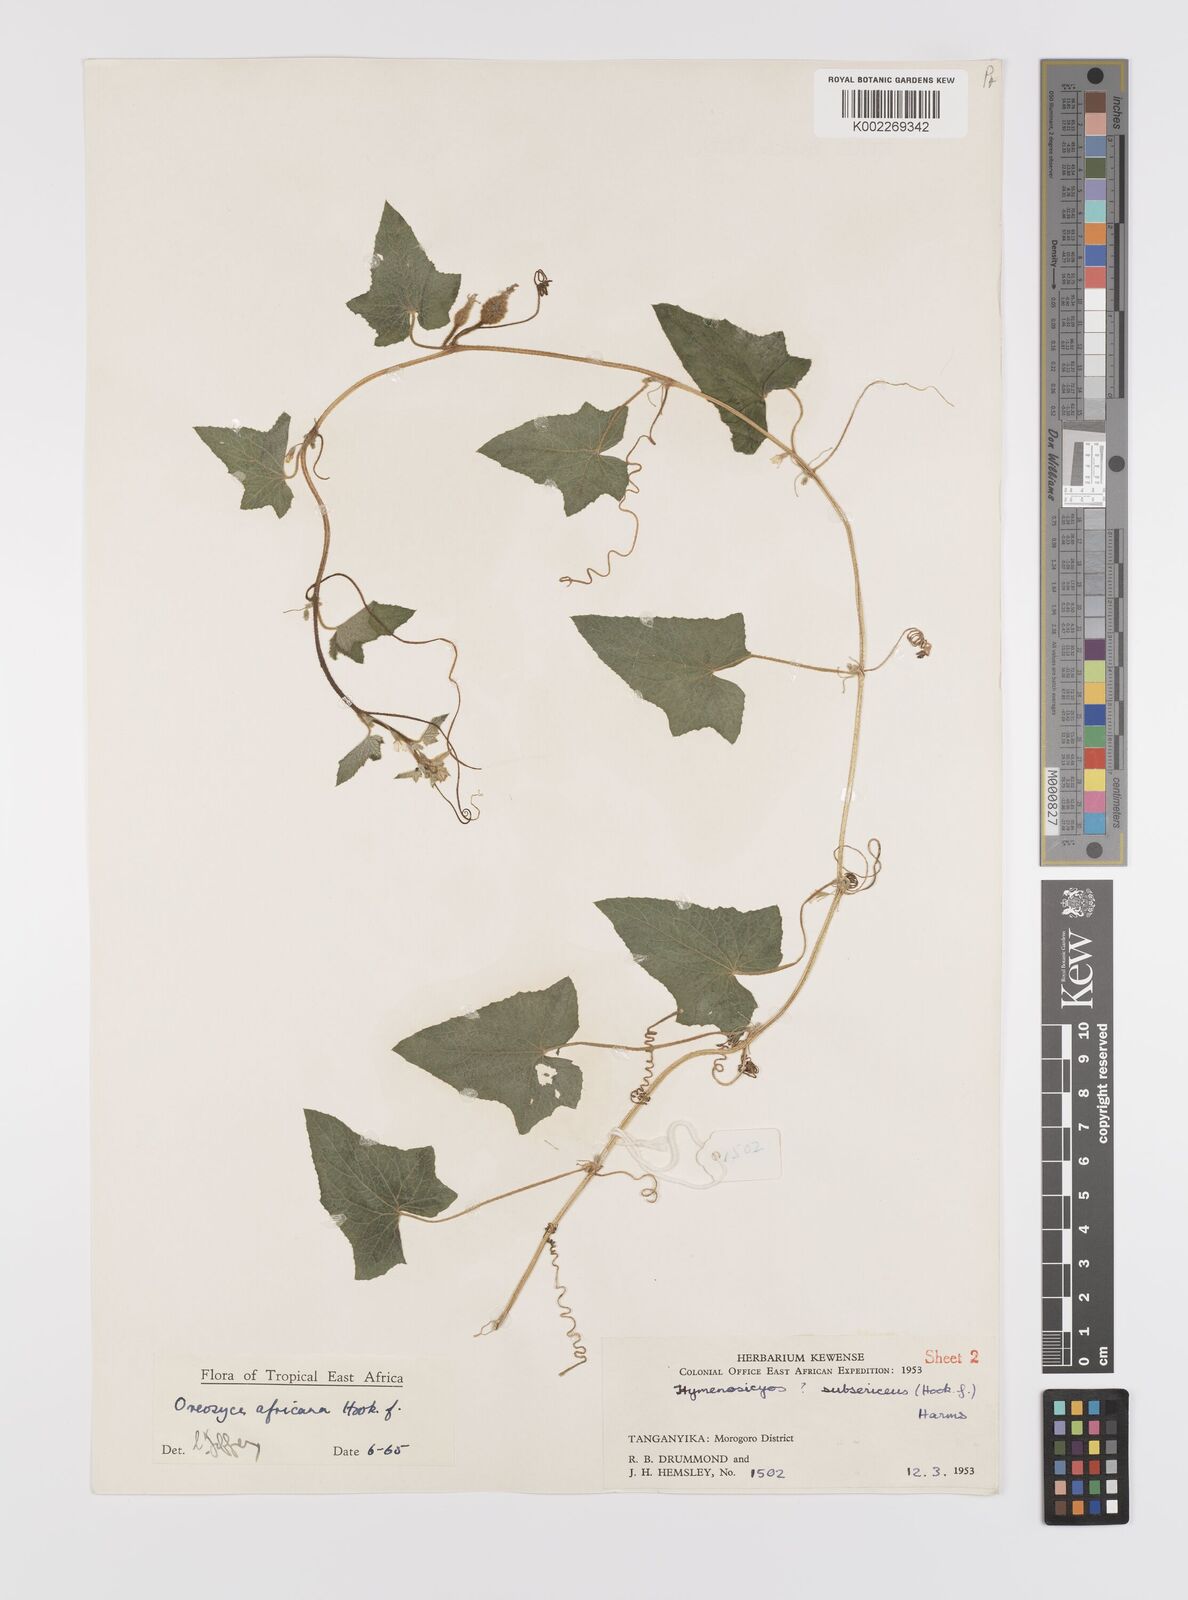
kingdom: Plantae
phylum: Tracheophyta
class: Magnoliopsida
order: Cucurbitales
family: Cucurbitaceae
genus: Cucumis
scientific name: Cucumis oreosyce
